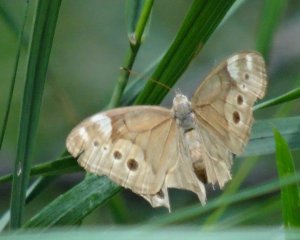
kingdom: Animalia
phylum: Arthropoda
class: Insecta
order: Lepidoptera
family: Nymphalidae
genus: Lethe
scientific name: Lethe anthedon
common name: Northern Pearly-Eye
